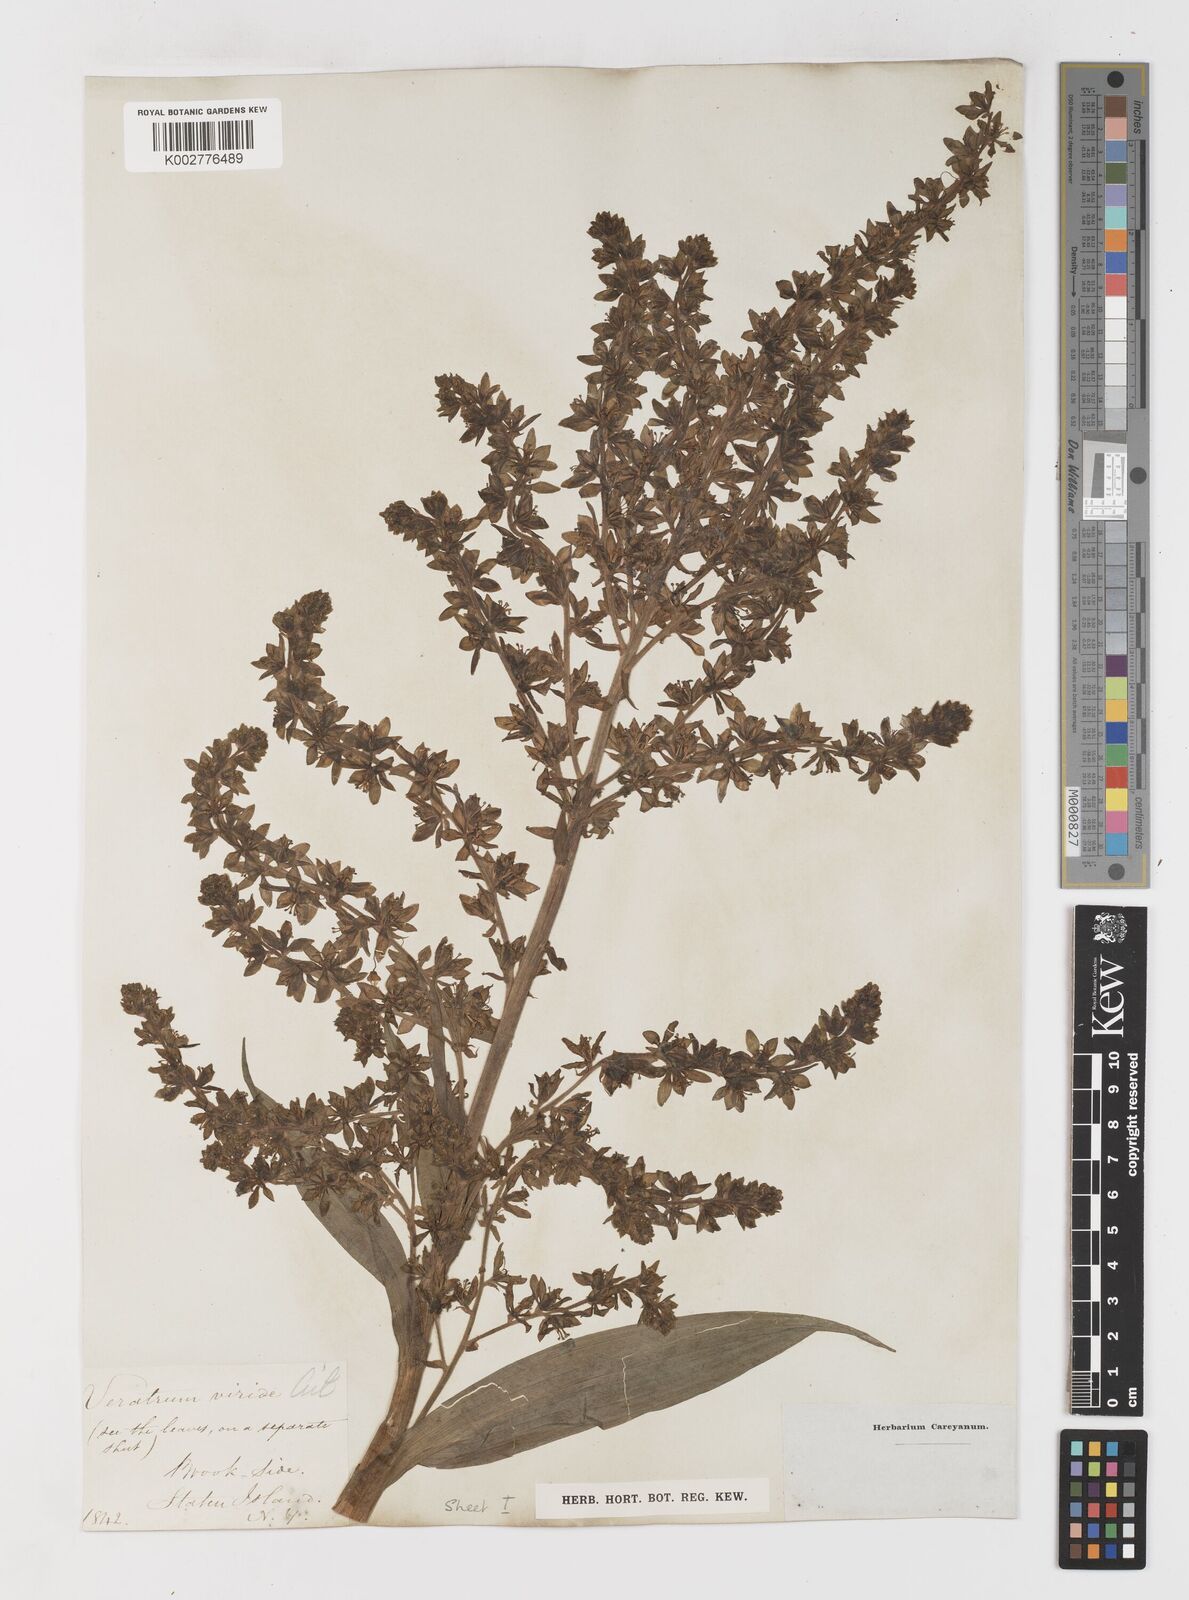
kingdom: Plantae
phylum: Tracheophyta
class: Liliopsida
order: Liliales
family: Melanthiaceae
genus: Veratrum
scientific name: Veratrum viride
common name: American false hellebore
